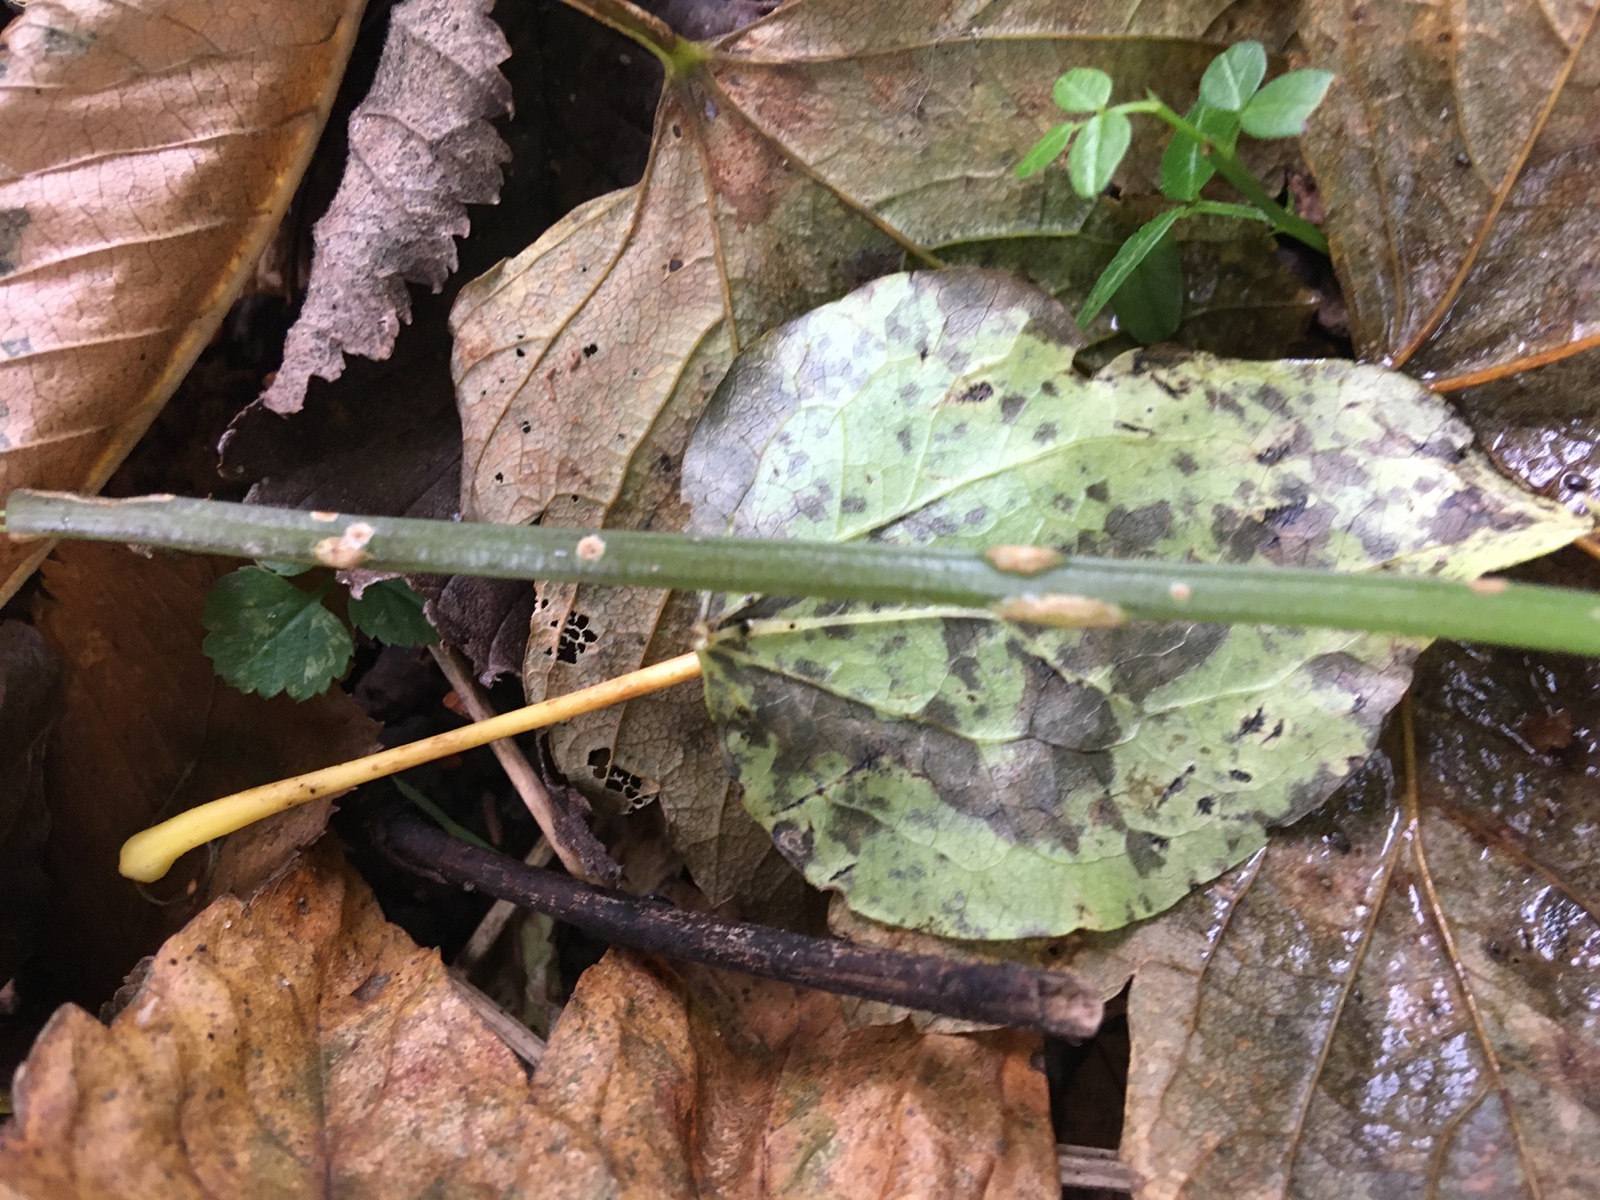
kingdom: Fungi
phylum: Ascomycota
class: Taphrinomycetes
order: Taphrinales
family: Taphrinaceae
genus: Protomyces
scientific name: Protomyces macrosporus
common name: skvalderkål-vablesæk
